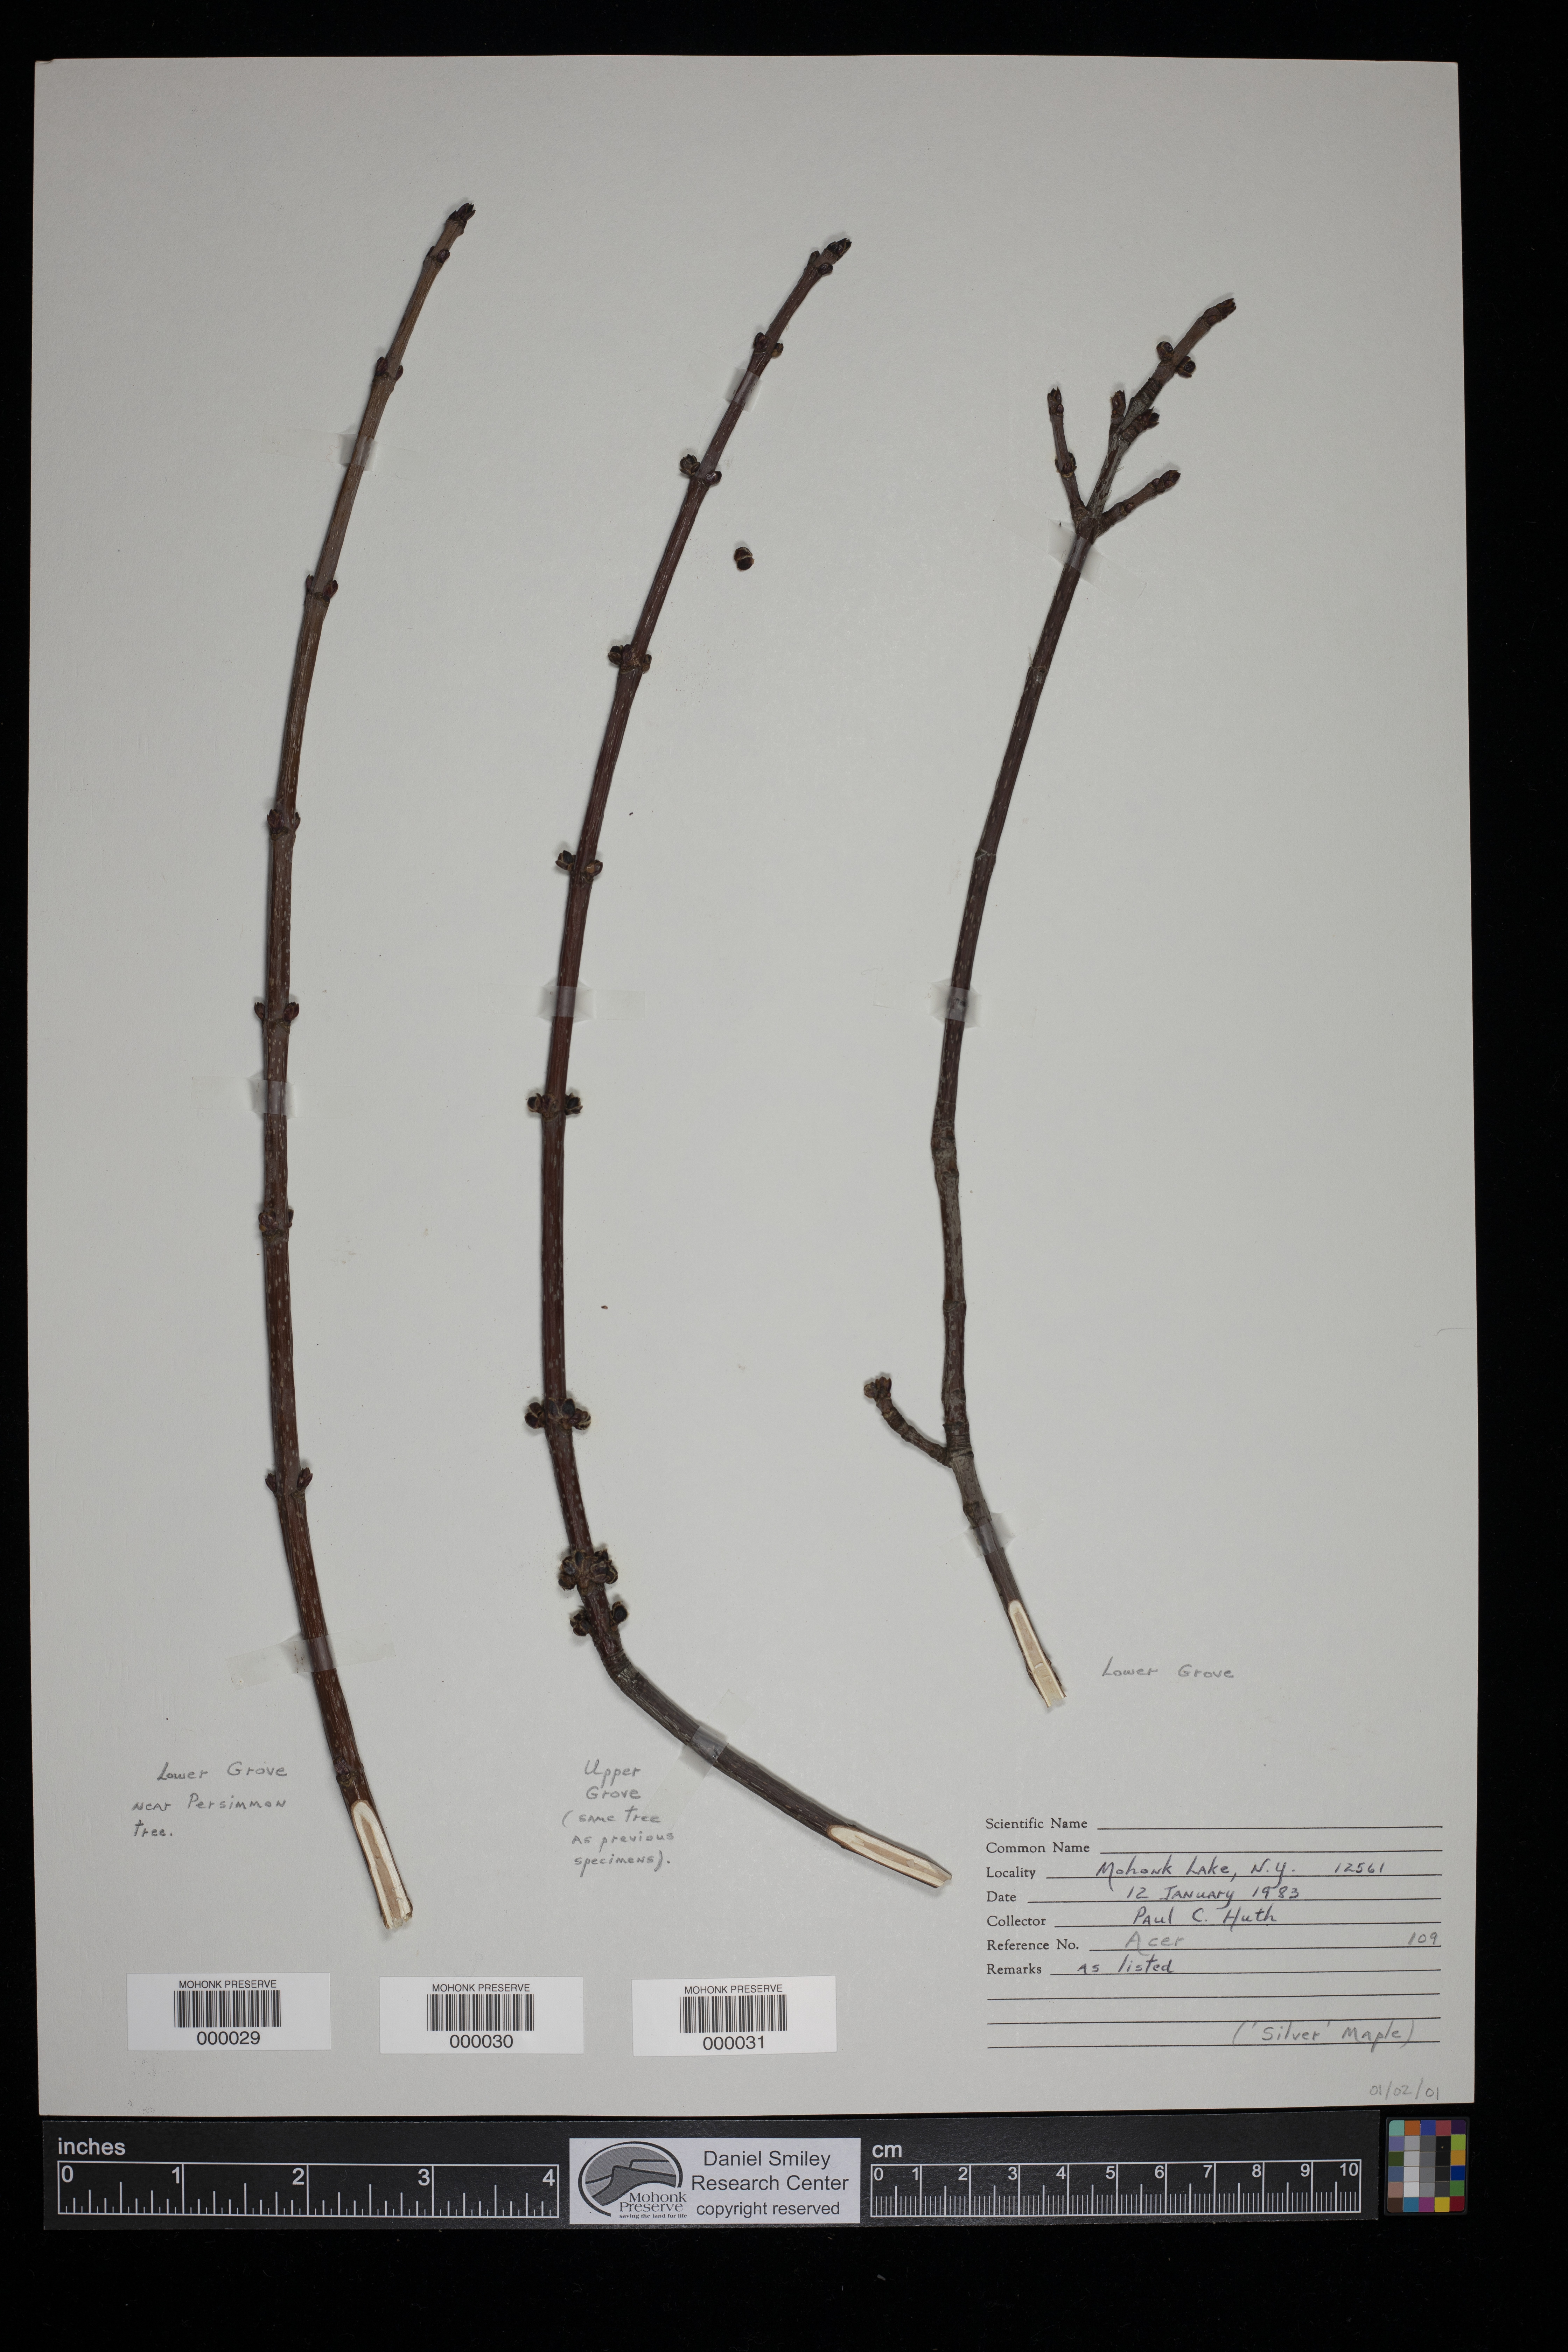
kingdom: Plantae
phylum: Tracheophyta
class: Magnoliopsida
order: Sapindales
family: Sapindaceae
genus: Acer
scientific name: Acer
